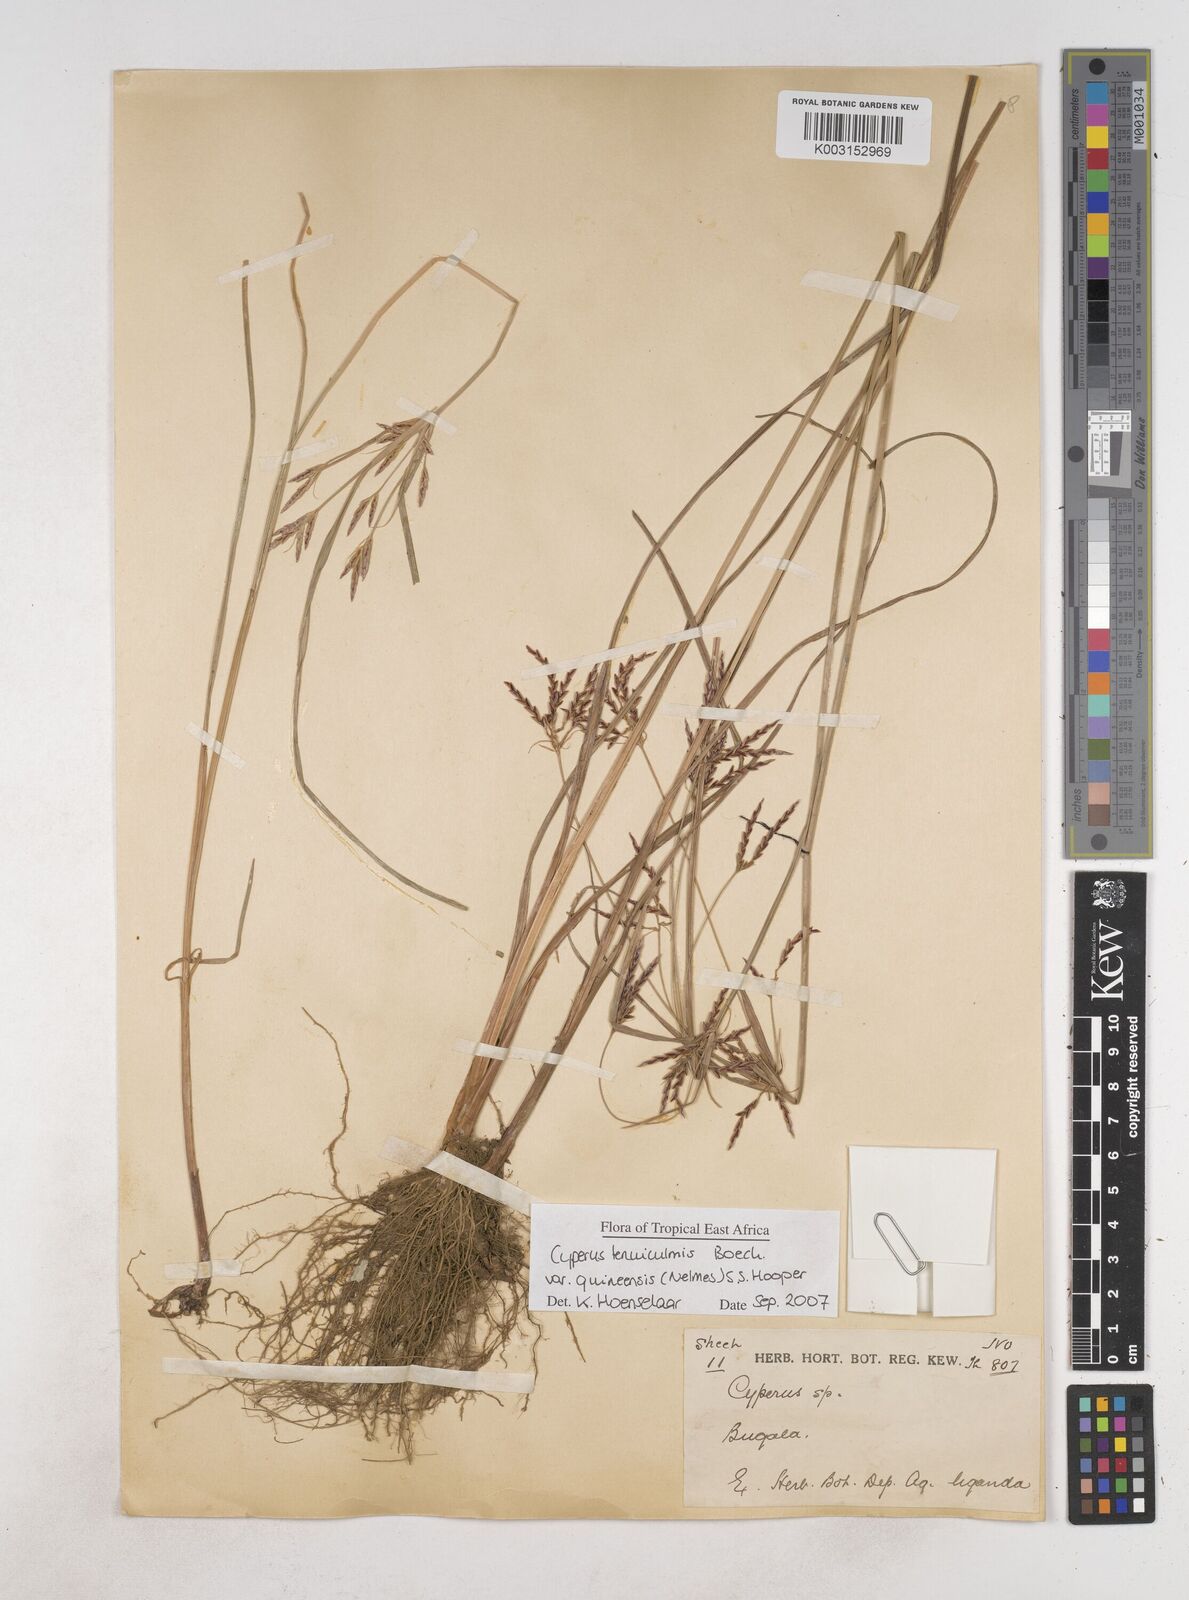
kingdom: Plantae
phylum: Tracheophyta
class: Liliopsida
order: Poales
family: Cyperaceae
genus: Cyperus
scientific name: Cyperus tenuiculmis
